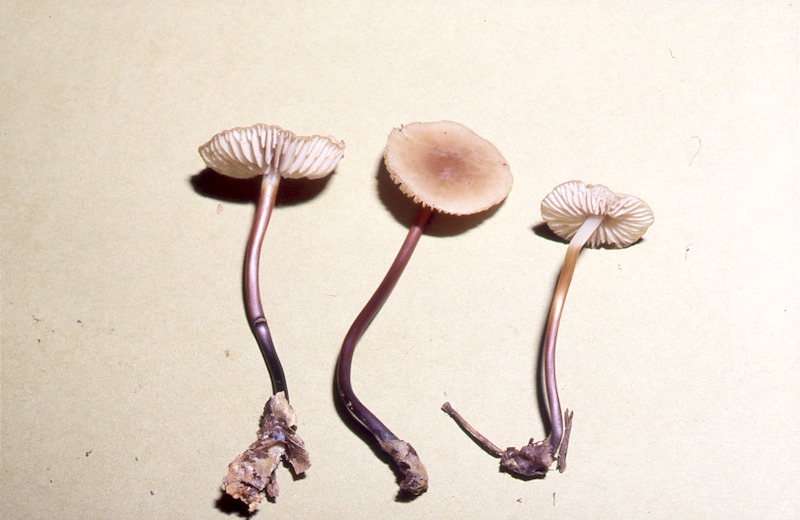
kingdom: Fungi
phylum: Basidiomycota
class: Agaricomycetes
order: Agaricales
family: Marasmiaceae
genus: Marasmius
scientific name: Marasmius cohaerens
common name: Bristled parachute
